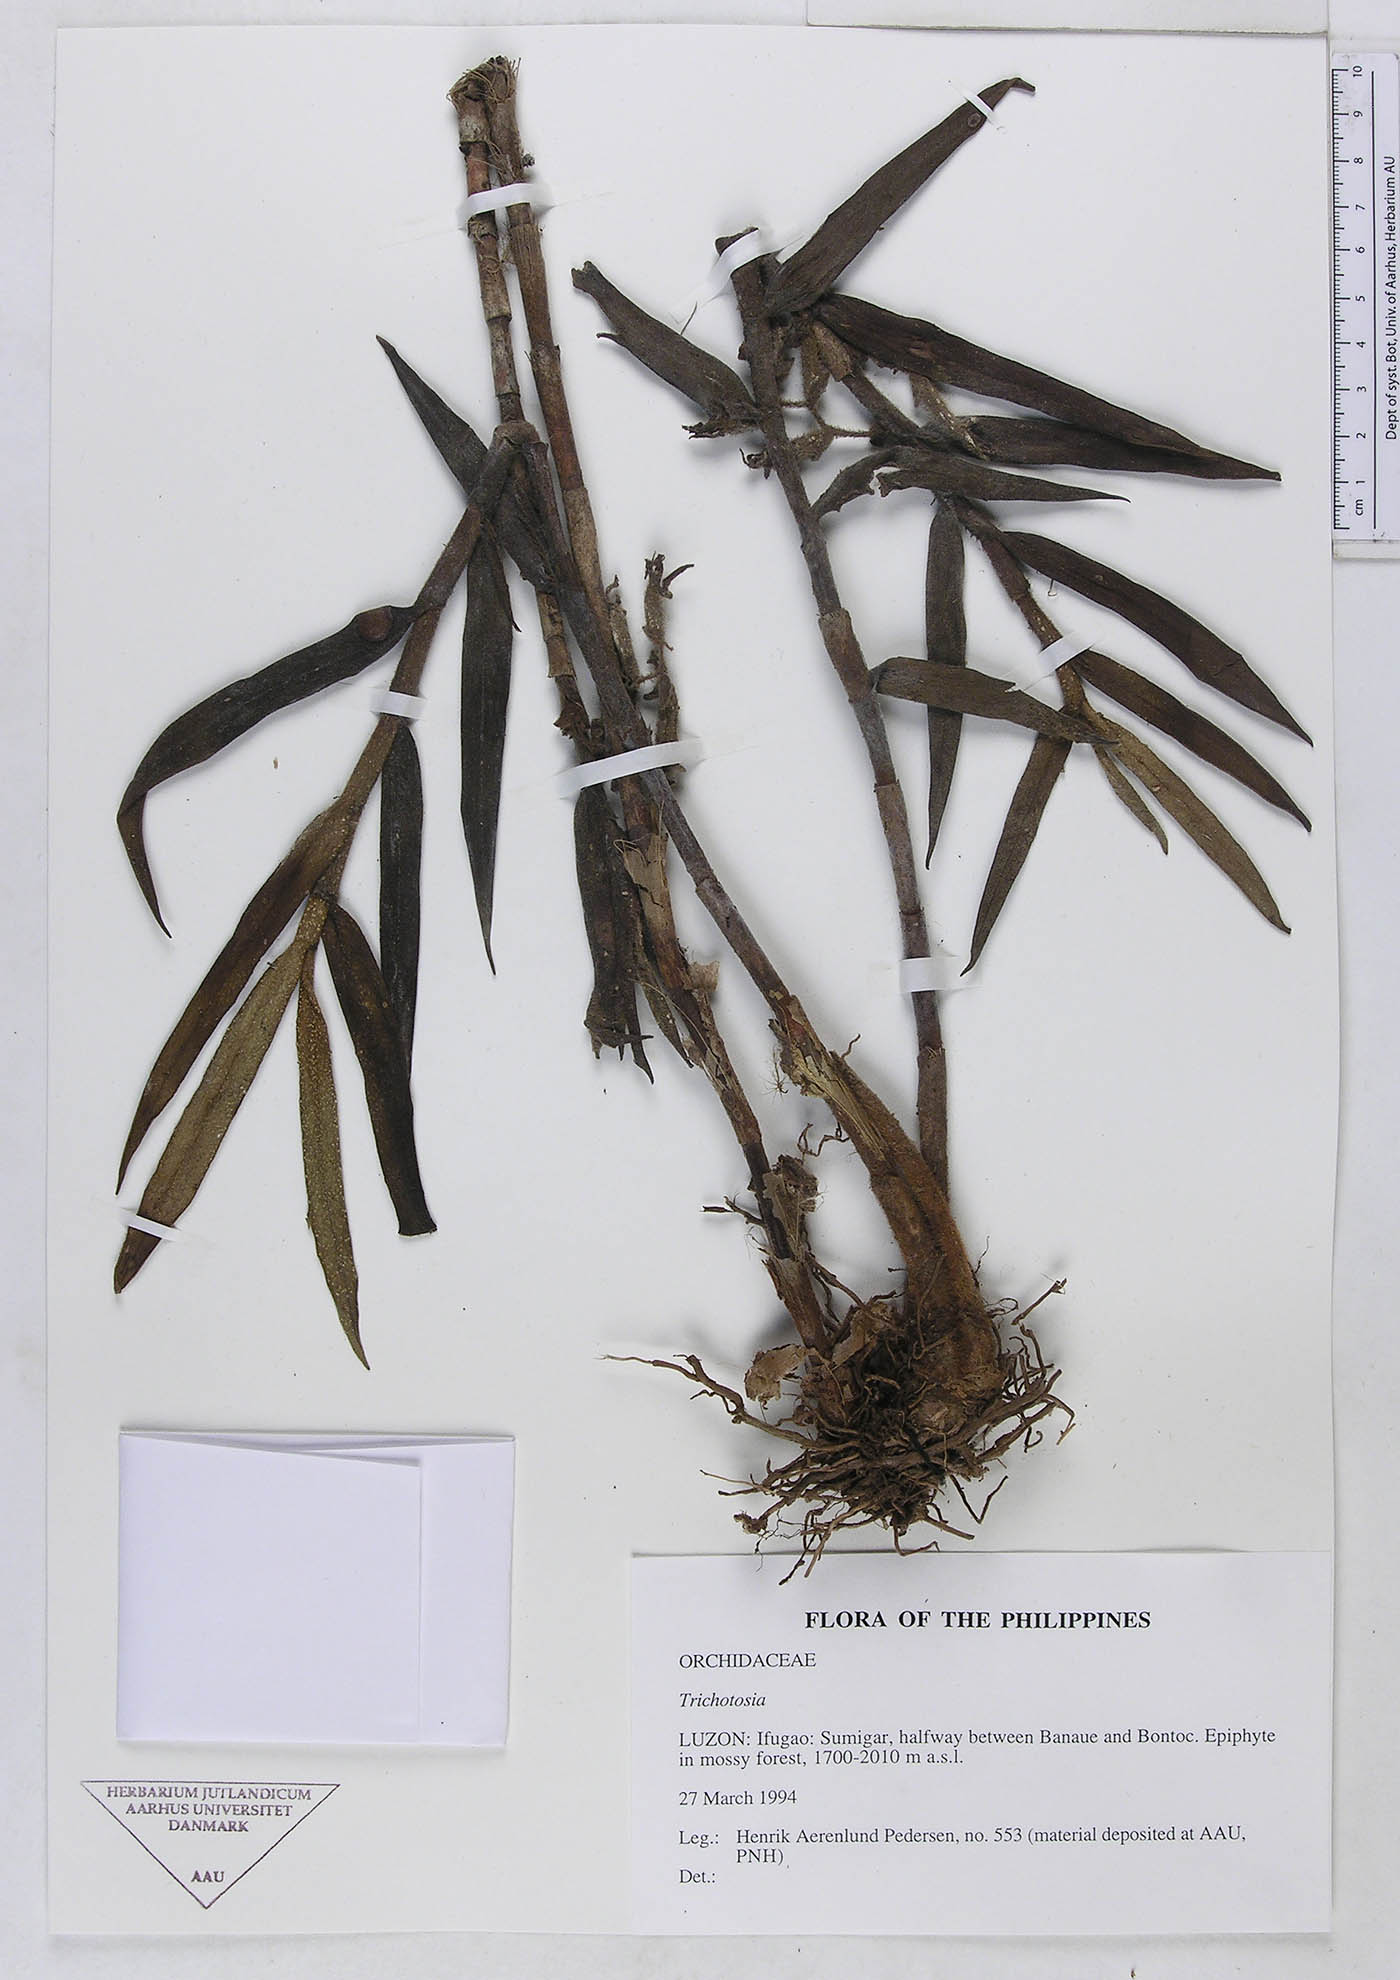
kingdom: Plantae
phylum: Tracheophyta
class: Liliopsida
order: Asparagales
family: Orchidaceae
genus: Trichotosia
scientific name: Trichotosia
